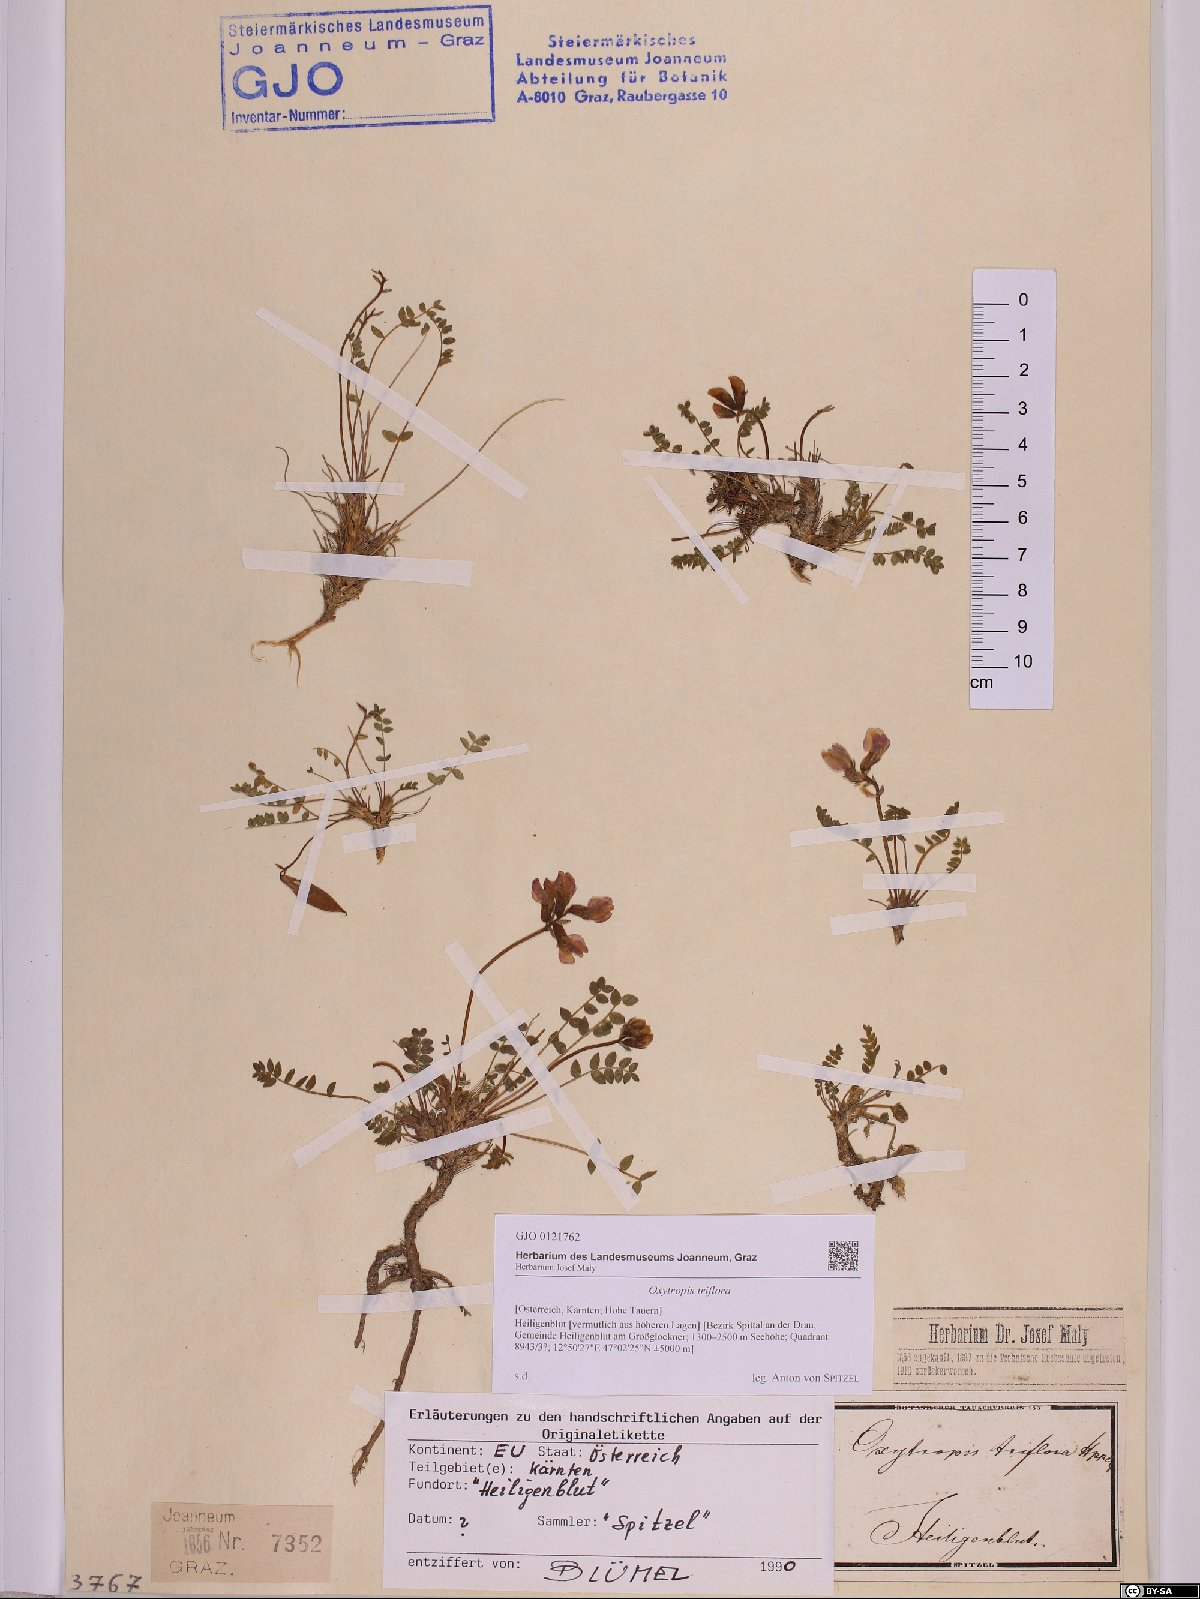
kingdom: Plantae
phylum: Tracheophyta
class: Magnoliopsida
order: Fabales
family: Fabaceae
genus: Oxytropis
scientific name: Oxytropis triflora
